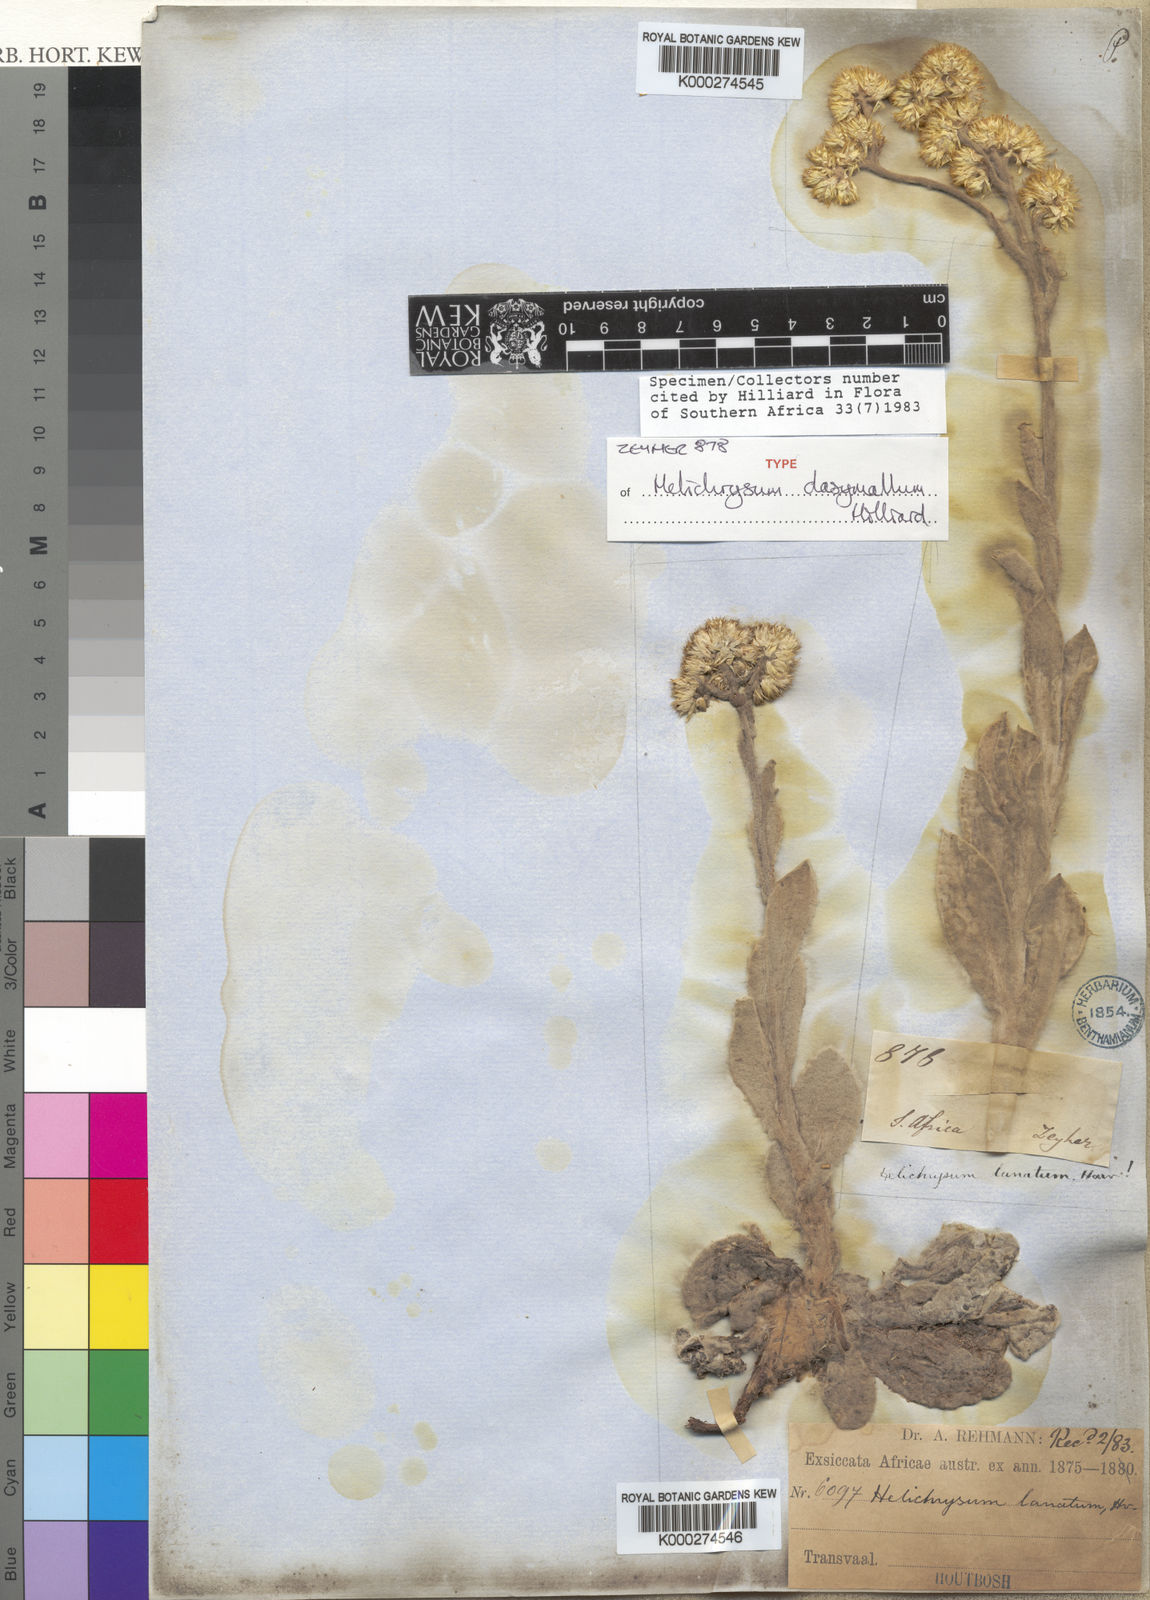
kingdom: Plantae
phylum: Tracheophyta
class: Magnoliopsida
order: Asterales
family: Asteraceae
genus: Helichrysum
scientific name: Helichrysum dasymallum
